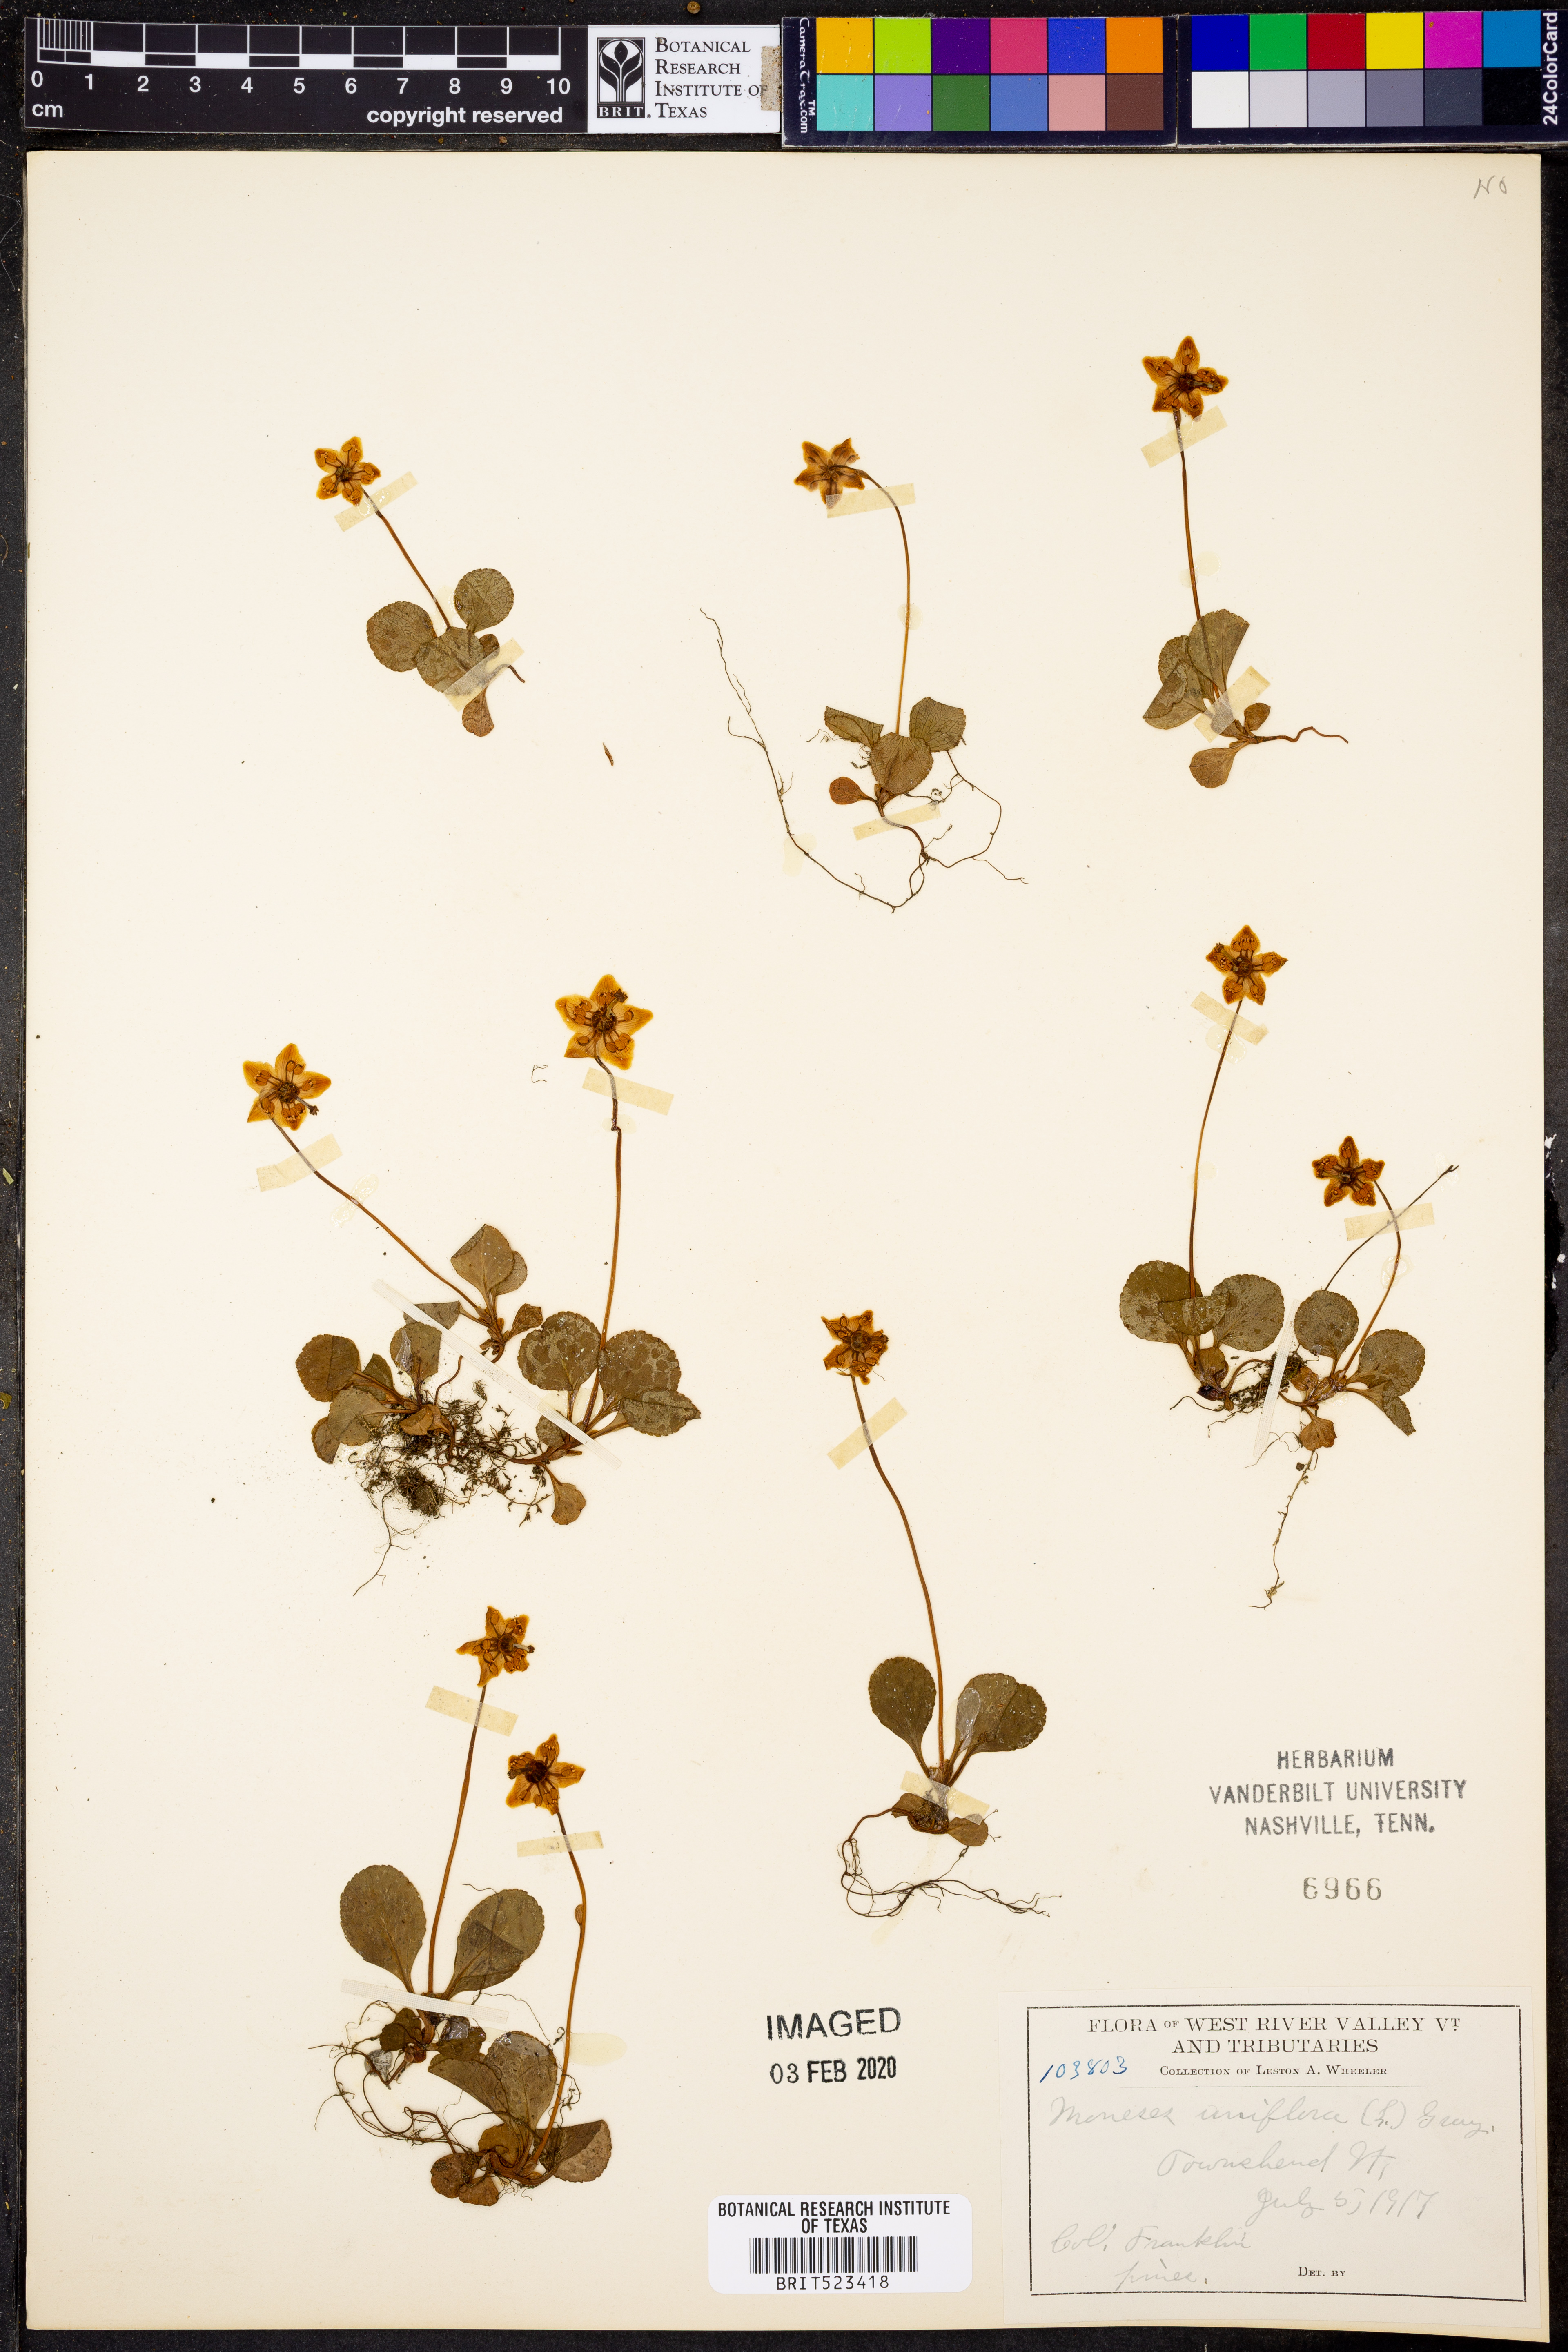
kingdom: Plantae
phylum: Tracheophyta
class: Magnoliopsida
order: Ericales
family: Ericaceae
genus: Moneses
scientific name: Moneses uniflora
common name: One-flowered wintergreen
